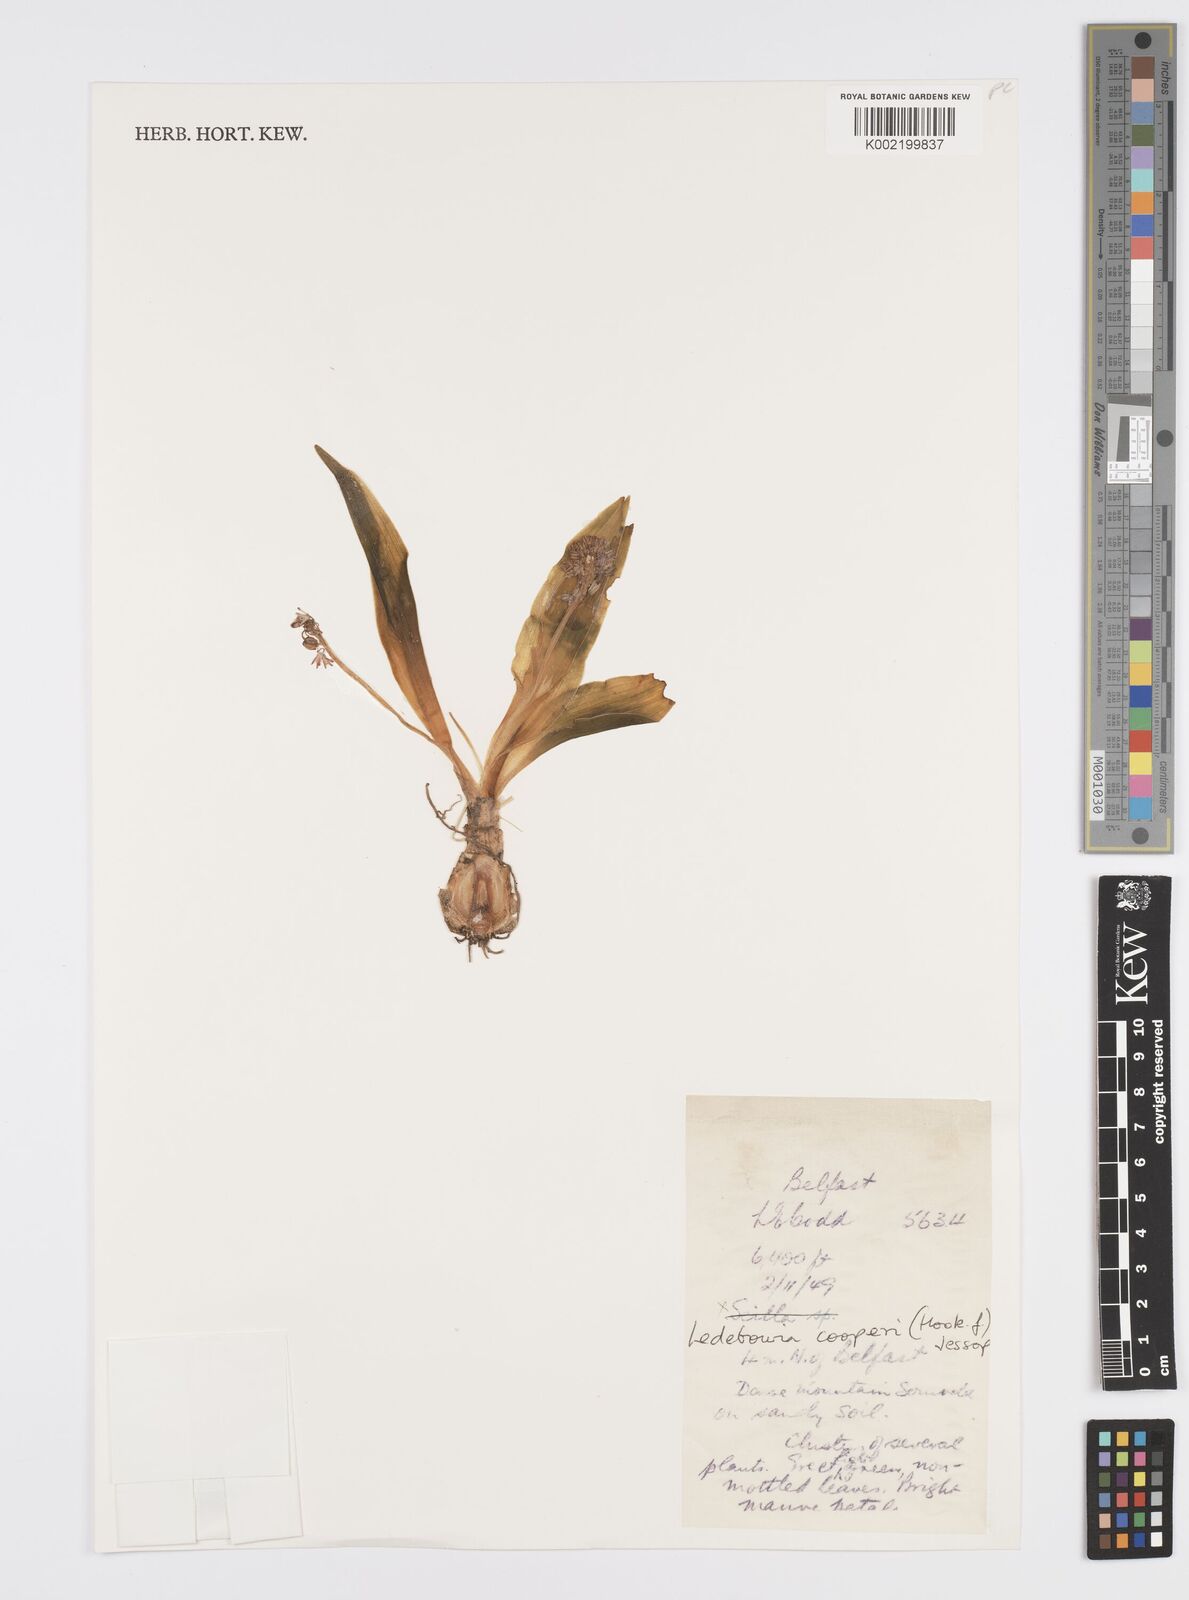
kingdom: Plantae
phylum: Tracheophyta
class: Liliopsida
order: Asparagales
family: Asparagaceae
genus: Ledebouria
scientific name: Ledebouria cooperi
